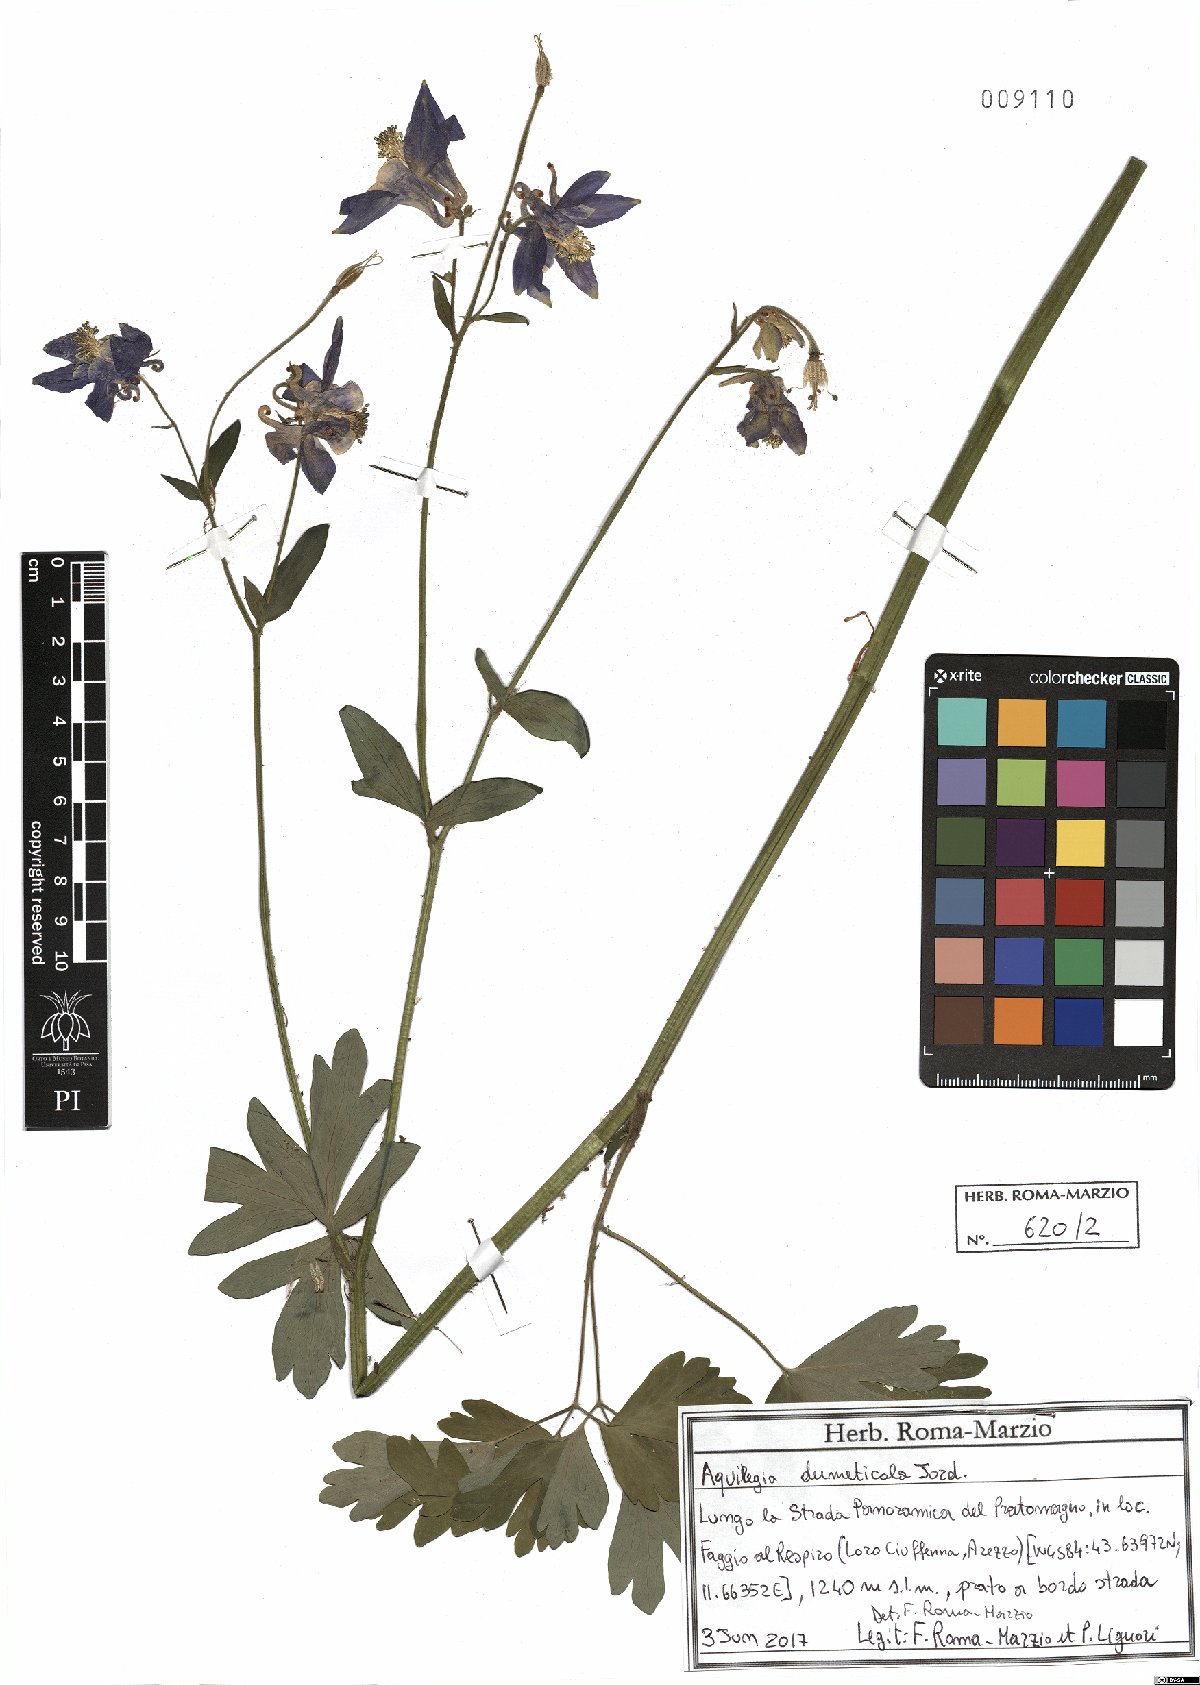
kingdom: Plantae
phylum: Tracheophyta
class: Magnoliopsida
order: Ranunculales
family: Ranunculaceae
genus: Aquilegia
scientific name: Aquilegia dumeticola
